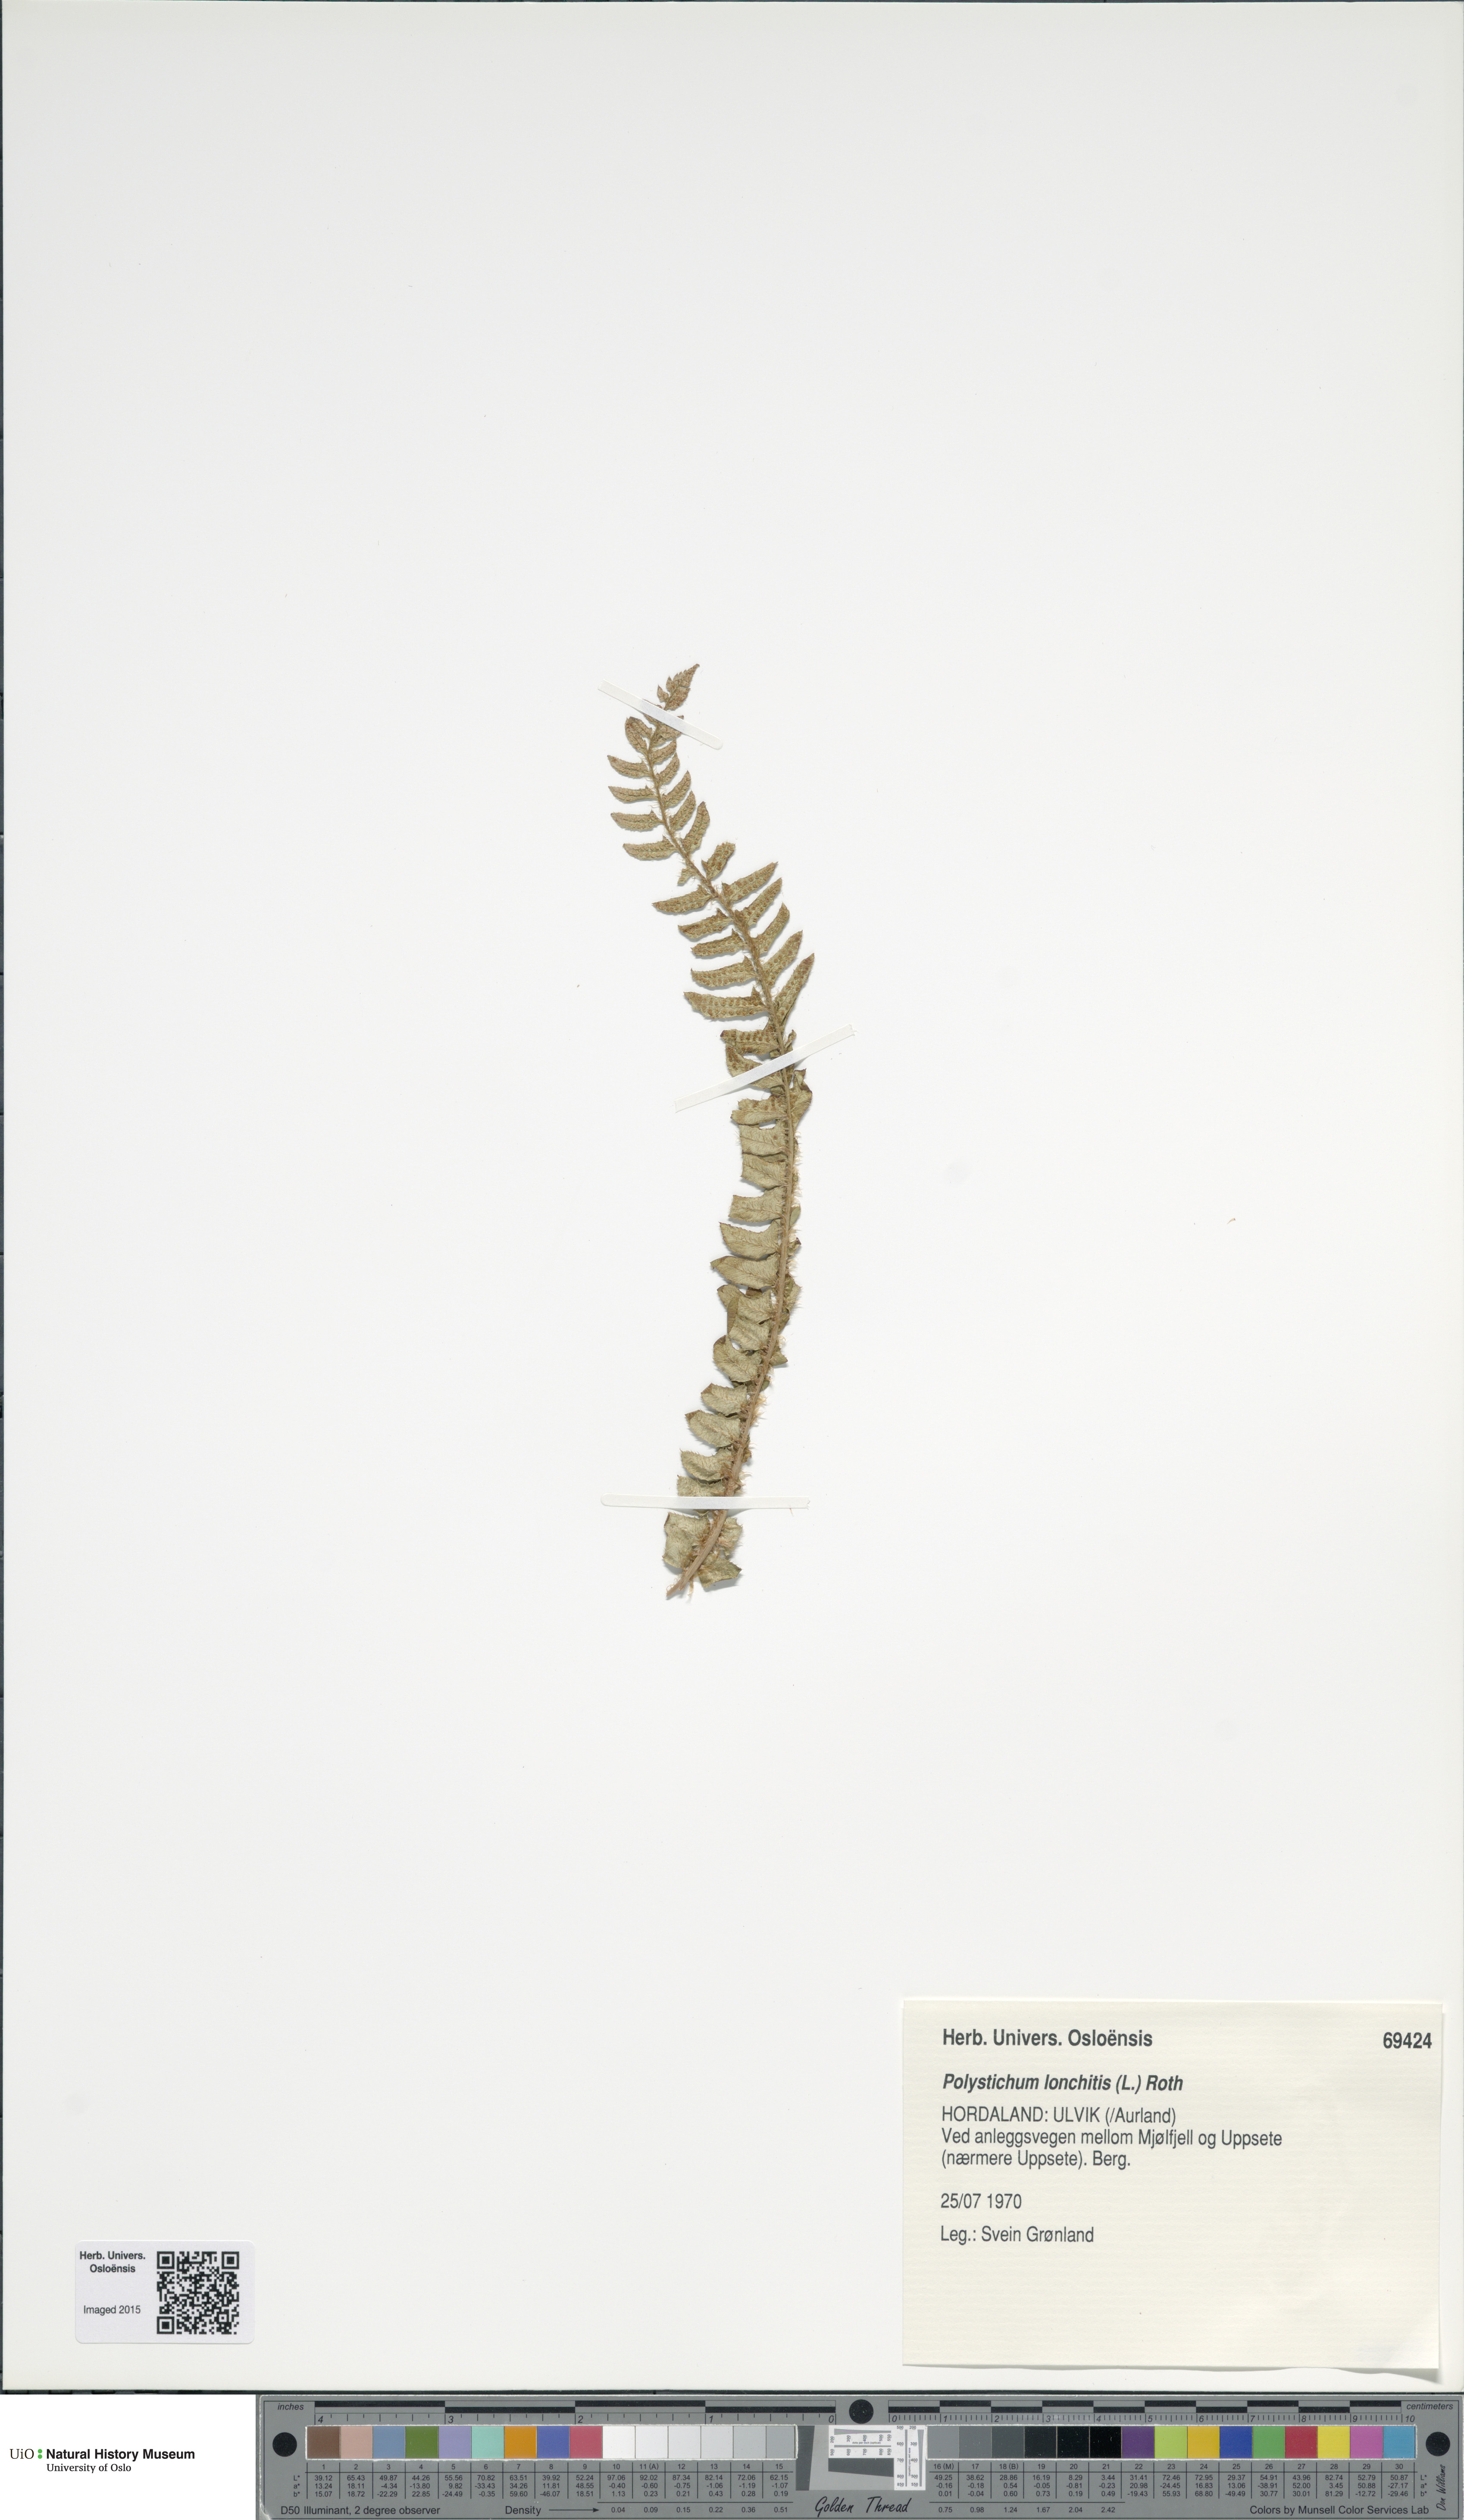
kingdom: Plantae
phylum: Tracheophyta
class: Polypodiopsida
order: Polypodiales
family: Dryopteridaceae
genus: Polystichum
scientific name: Polystichum lonchitis
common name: Holly fern
